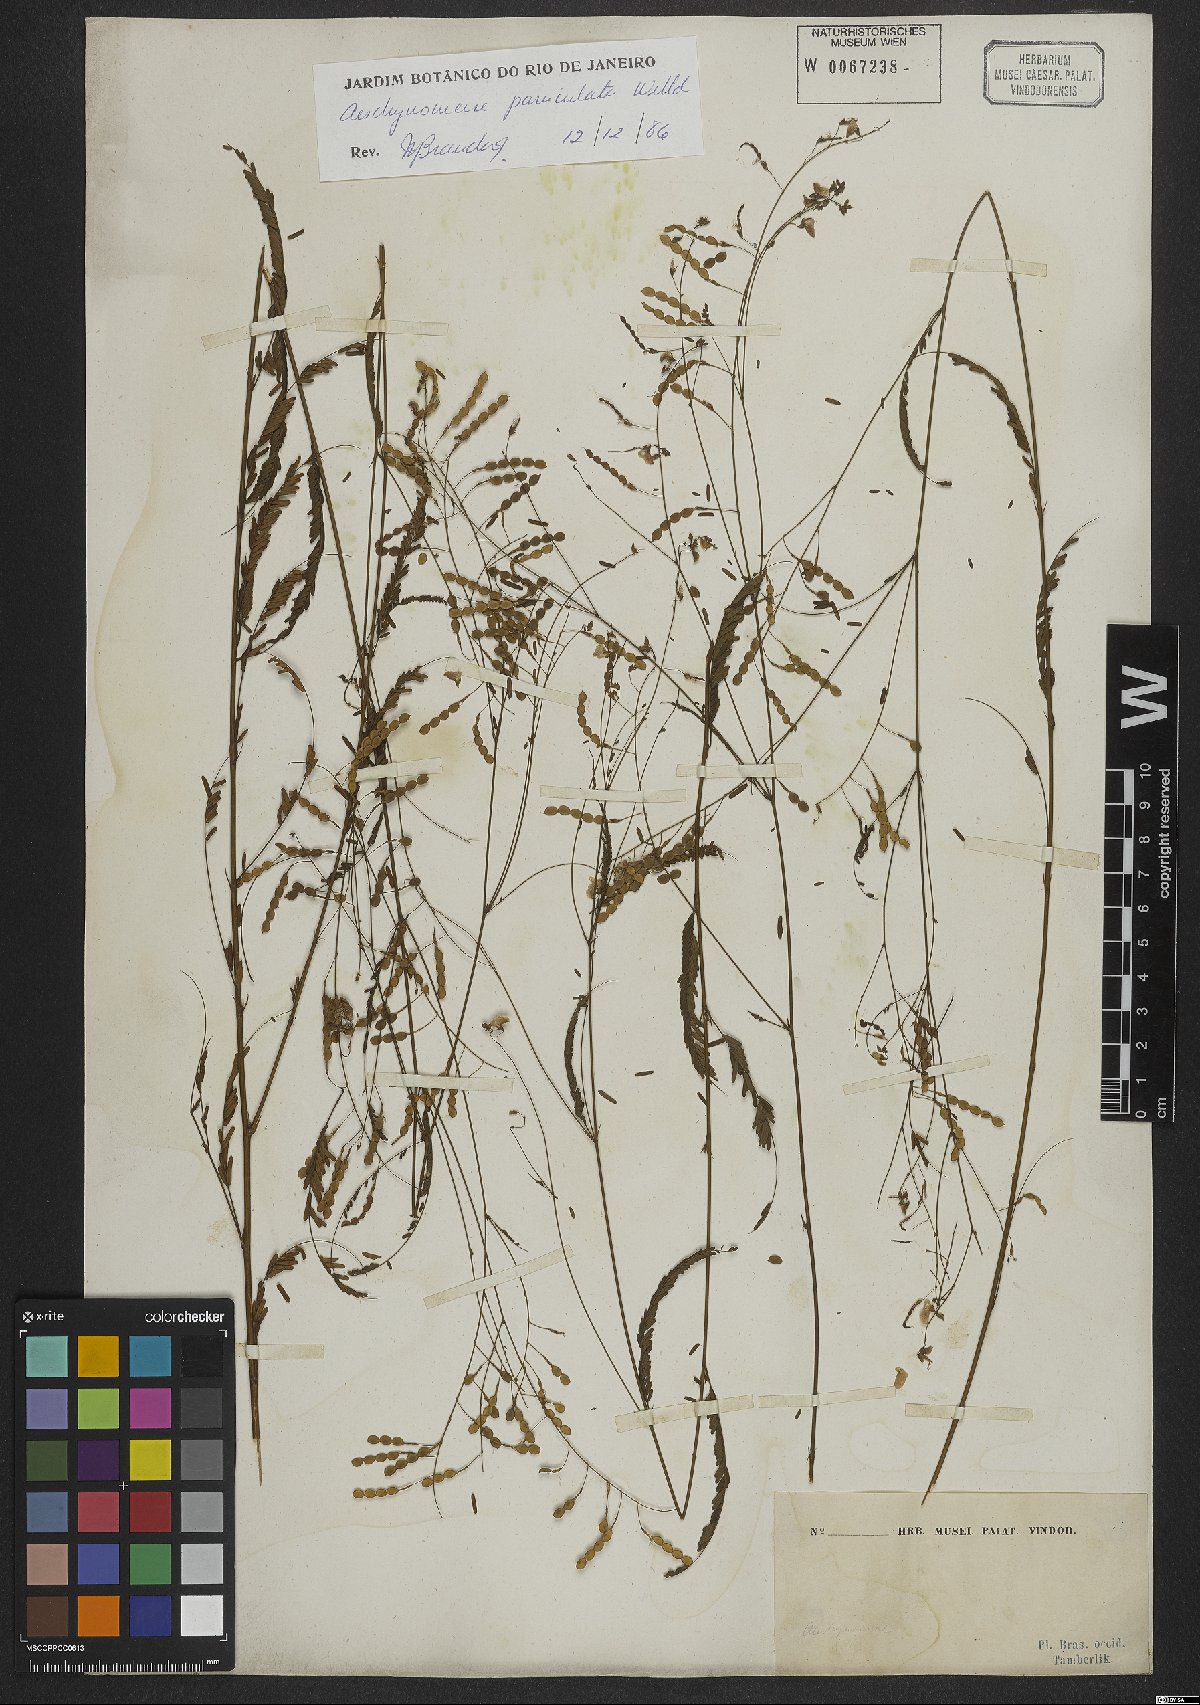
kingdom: Plantae
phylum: Tracheophyta
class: Magnoliopsida
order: Fabales
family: Fabaceae
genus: Ctenodon
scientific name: Ctenodon paniculatus
